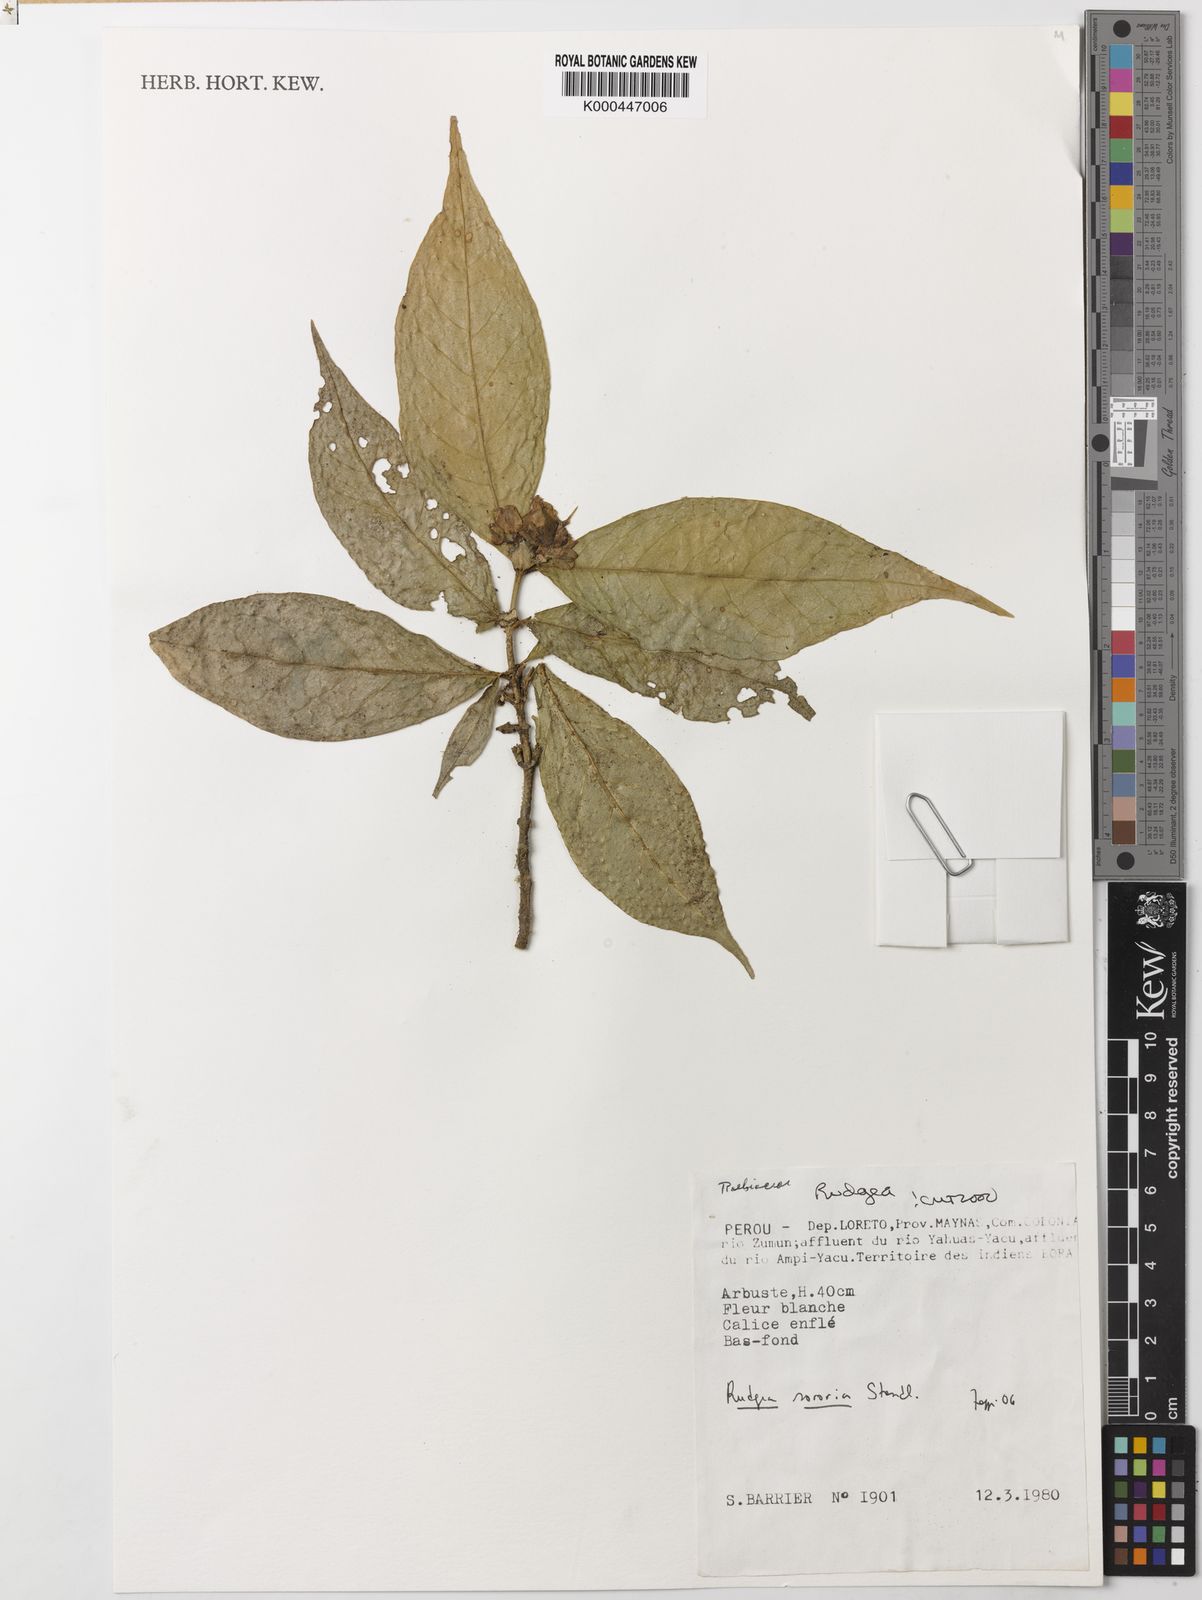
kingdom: Plantae
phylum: Tracheophyta
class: Magnoliopsida
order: Gentianales
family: Rubiaceae
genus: Rudgea
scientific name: Rudgea sororia
